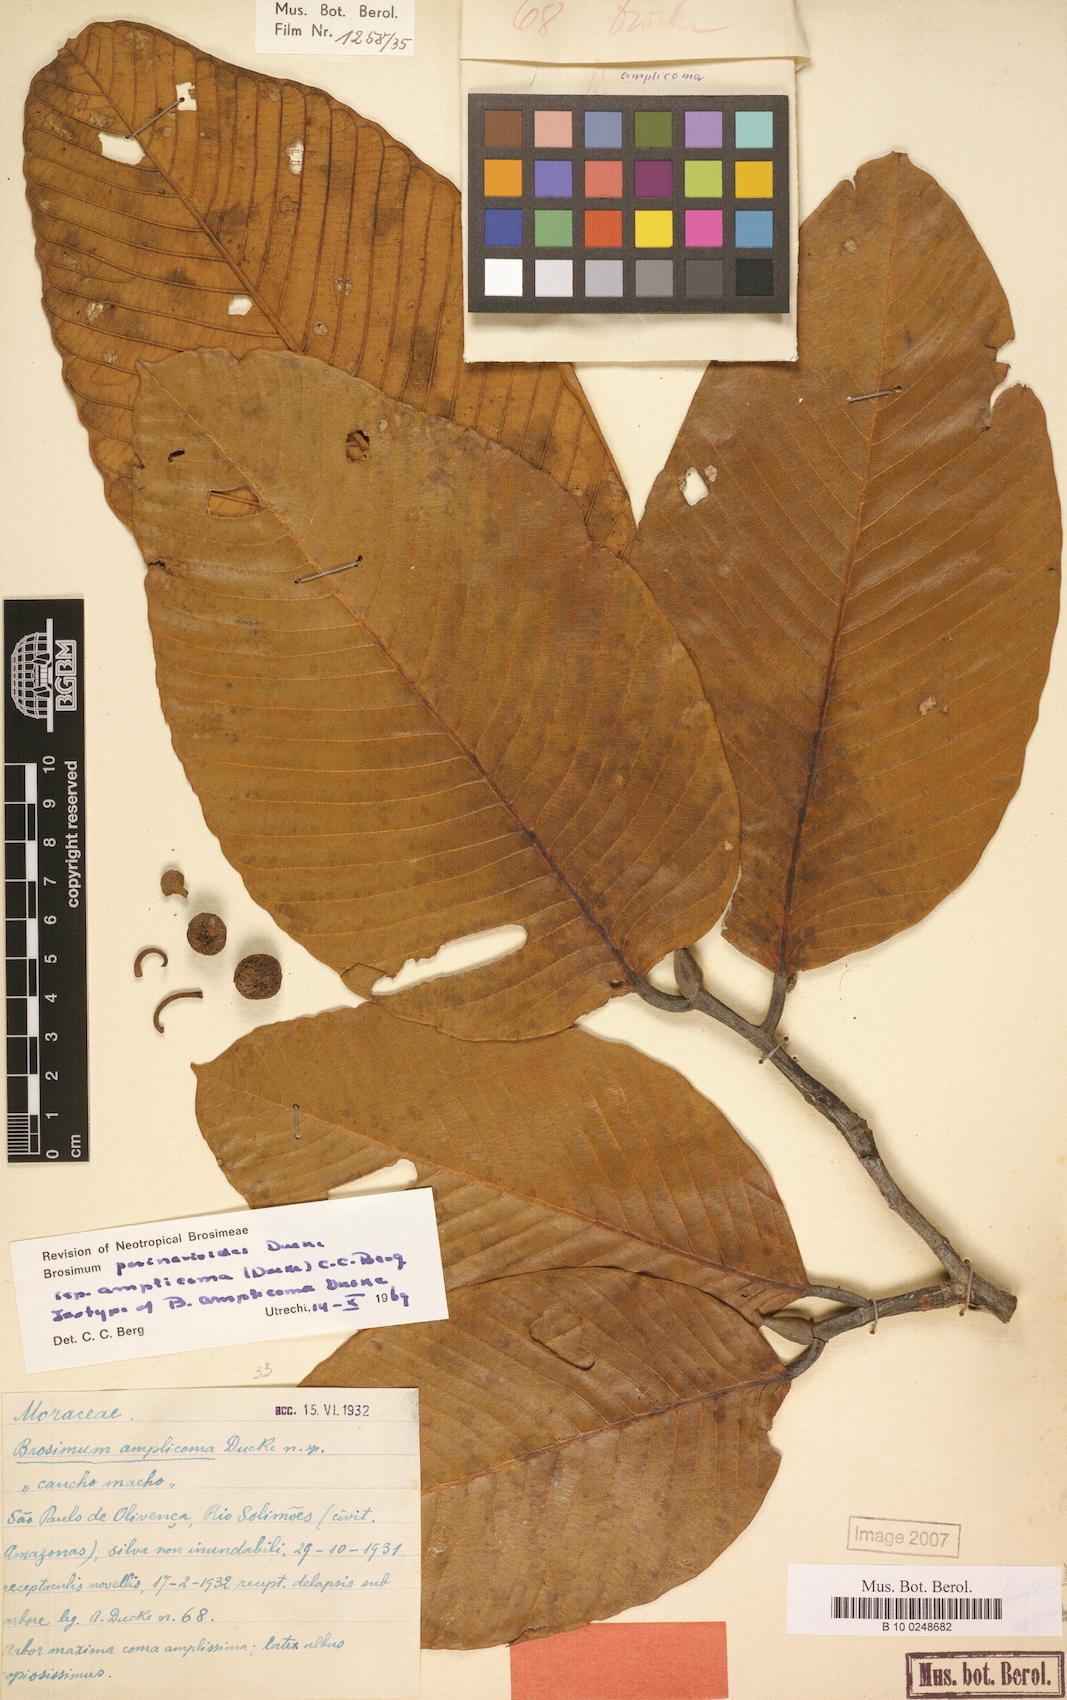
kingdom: Plantae
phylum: Tracheophyta
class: Magnoliopsida
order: Rosales
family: Moraceae
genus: Brosimum
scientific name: Brosimum parinarioides
